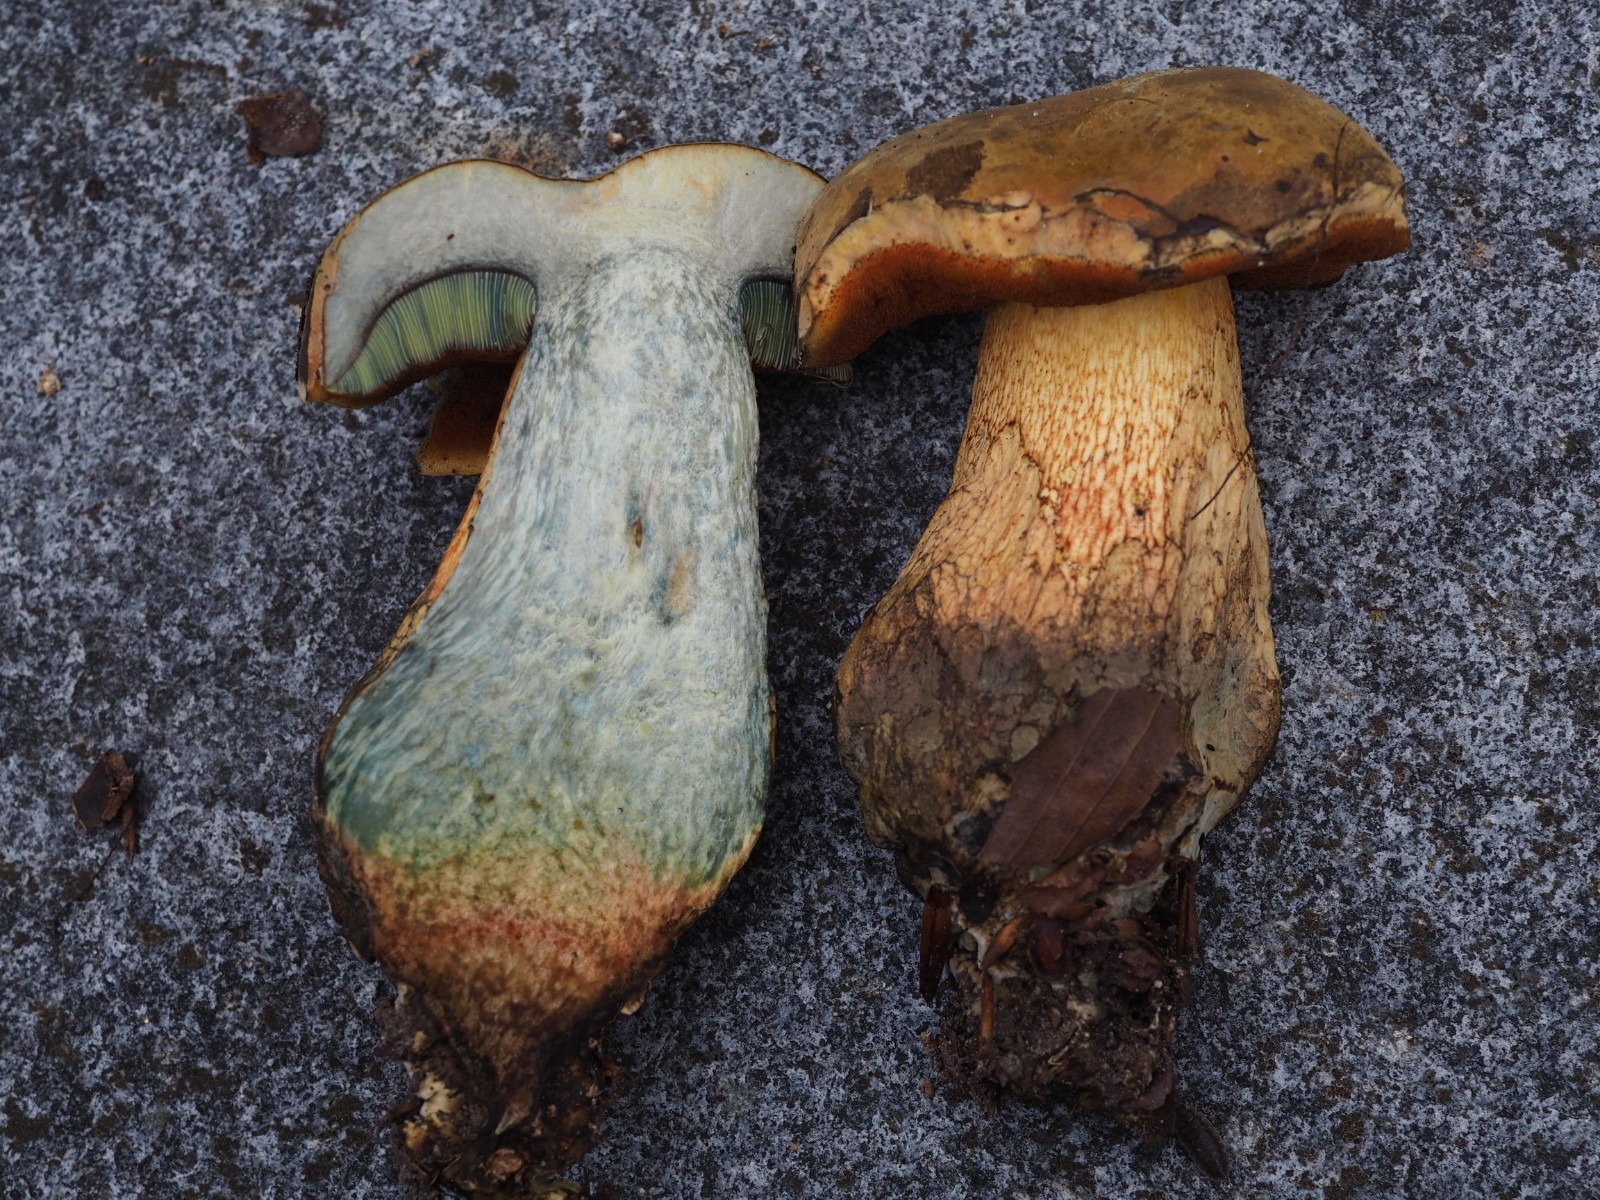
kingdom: Fungi
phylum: Basidiomycota
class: Agaricomycetes
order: Boletales
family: Boletaceae
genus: Suillellus
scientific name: Suillellus luridus
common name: netstokket indigorørhat
